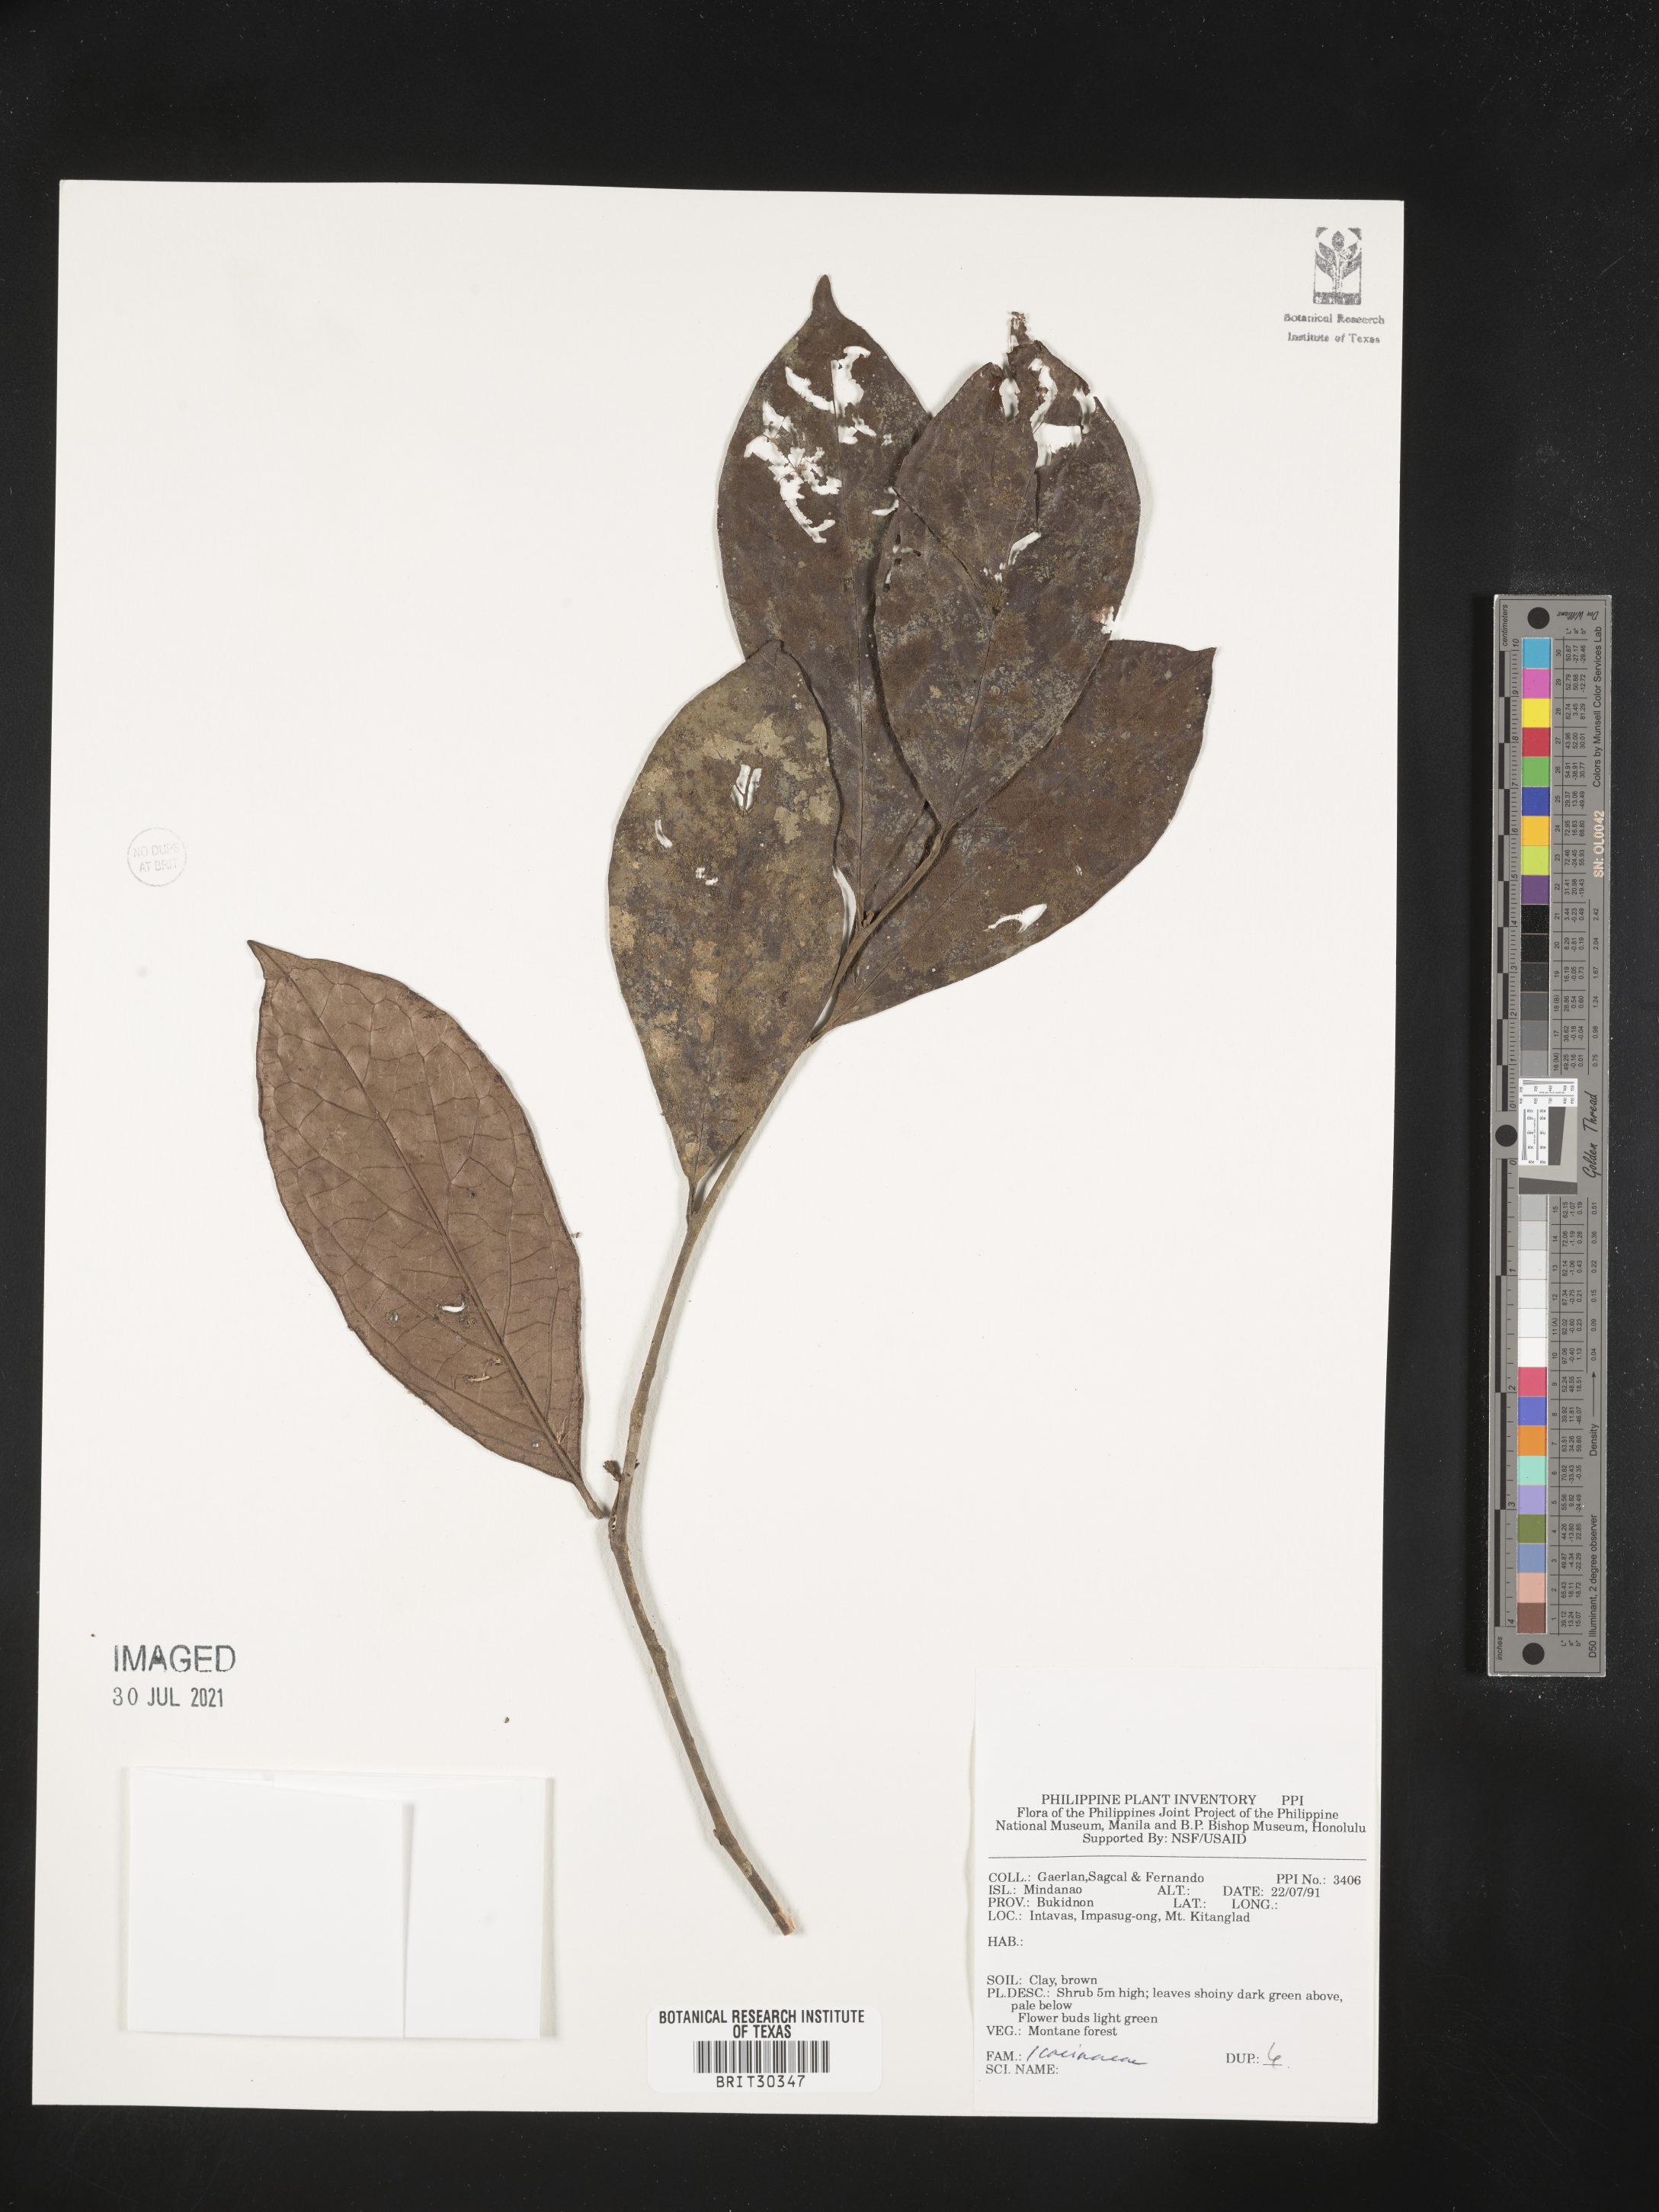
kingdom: Plantae
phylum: Tracheophyta
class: Magnoliopsida
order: Icacinales
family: Icacinaceae
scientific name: Icacinaceae
